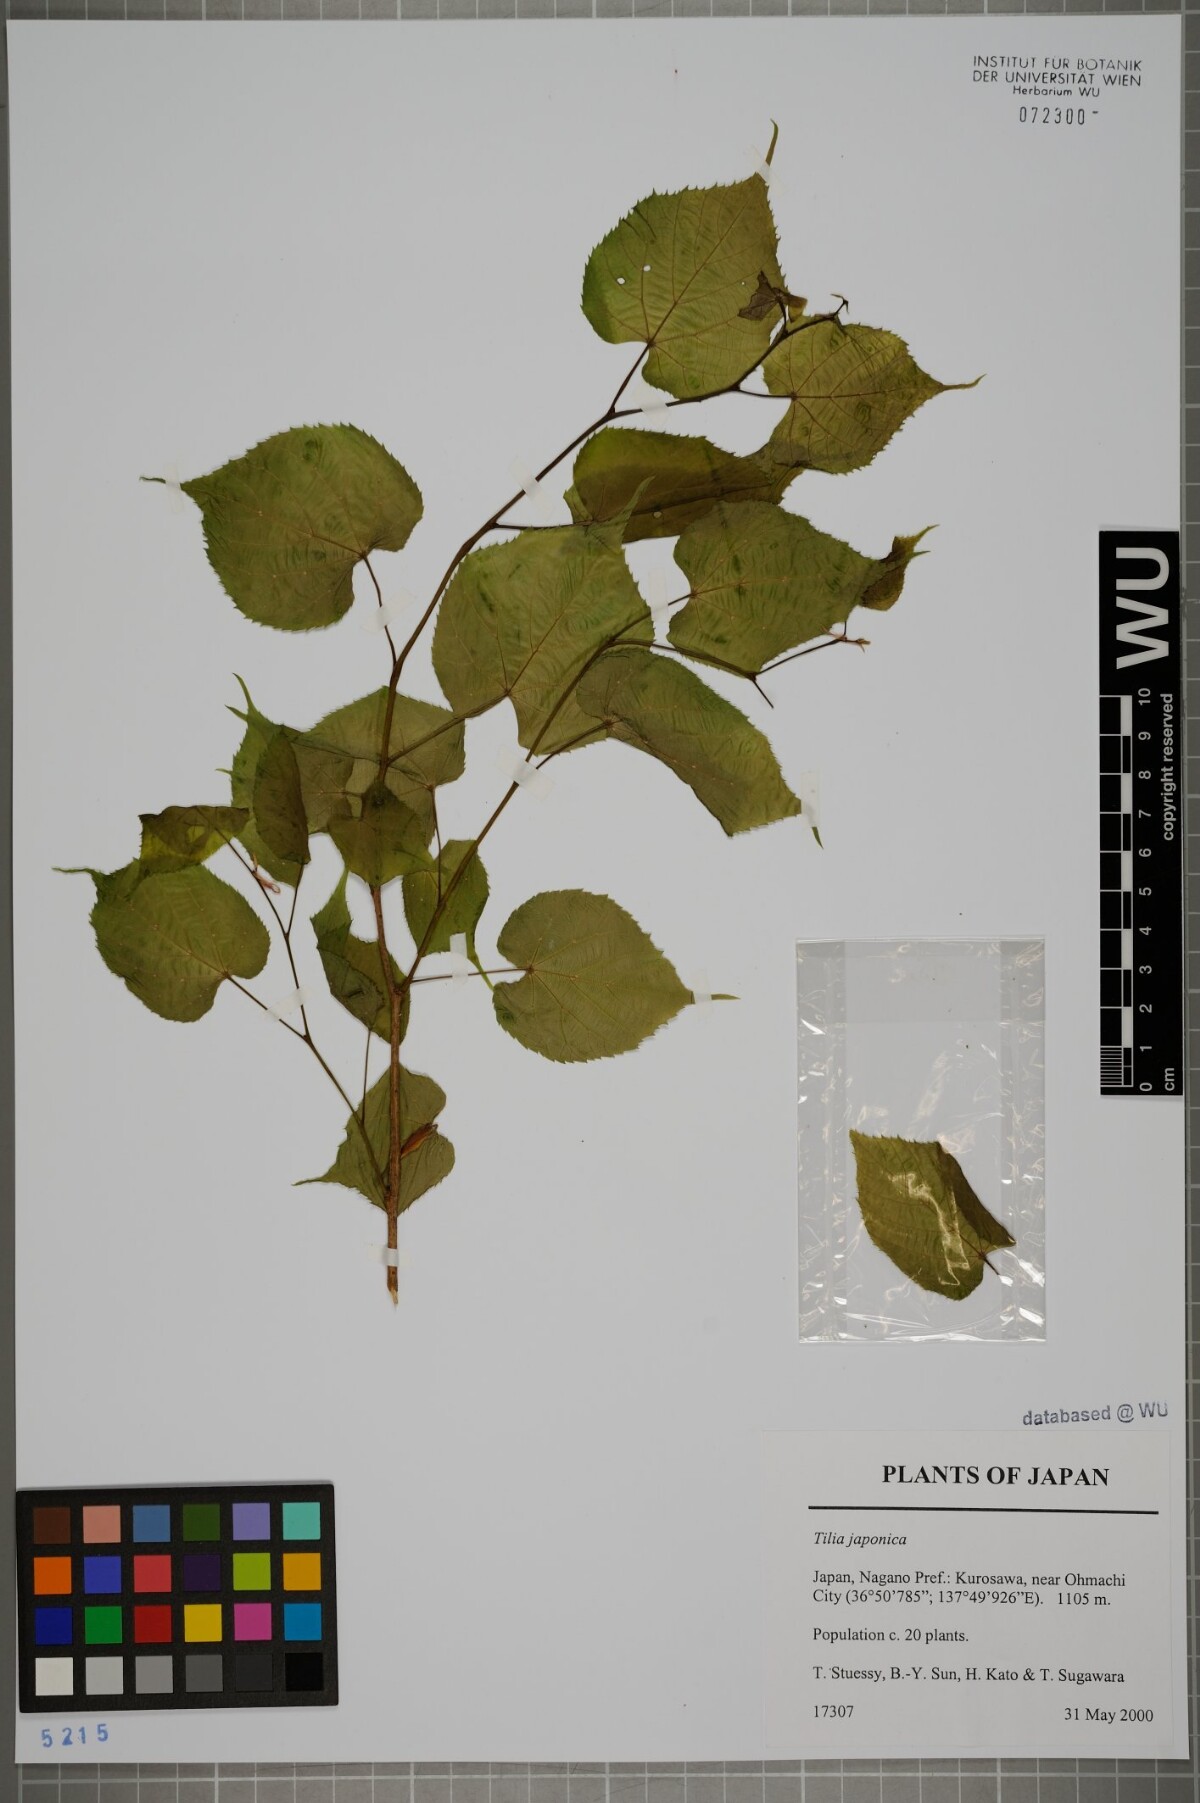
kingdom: Plantae
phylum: Tracheophyta
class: Magnoliopsida
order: Malvales
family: Malvaceae
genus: Tilia
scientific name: Tilia japonica
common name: Japanese lime
